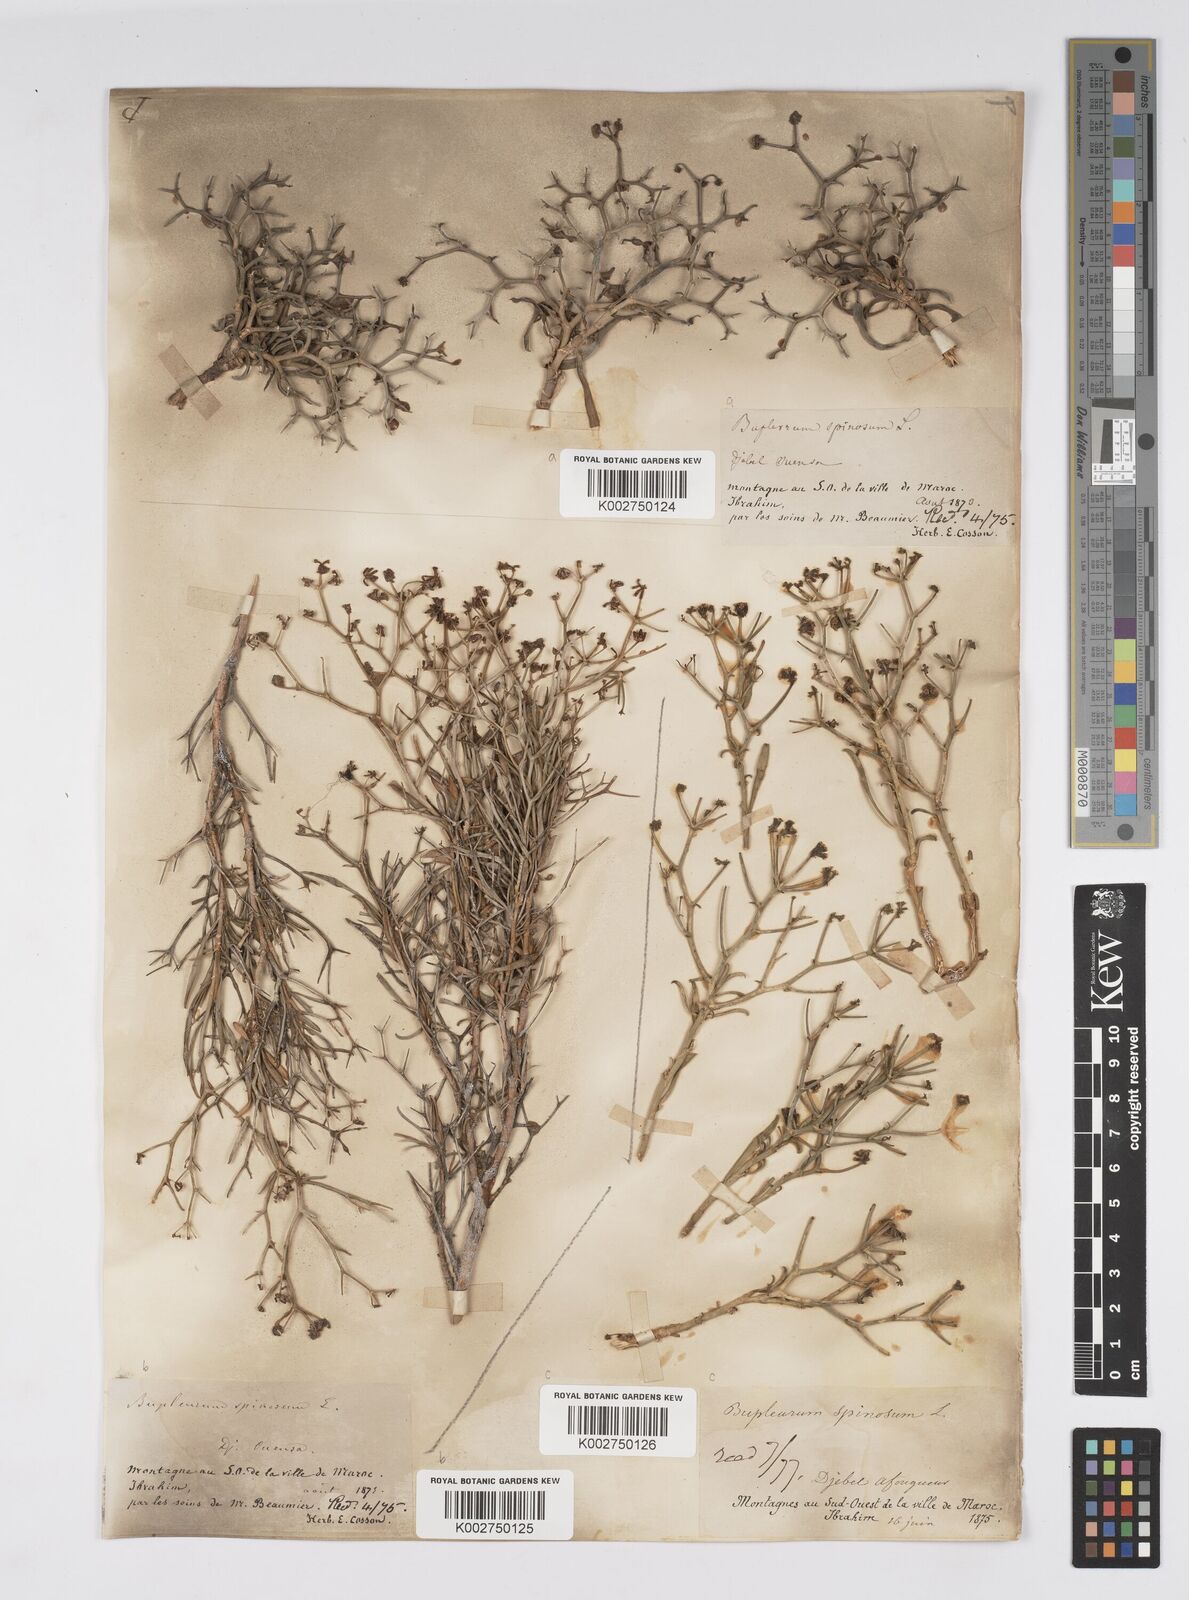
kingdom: Plantae
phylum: Tracheophyta
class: Magnoliopsida
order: Apiales
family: Apiaceae
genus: Bupleurum
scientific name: Bupleurum fruticescens
